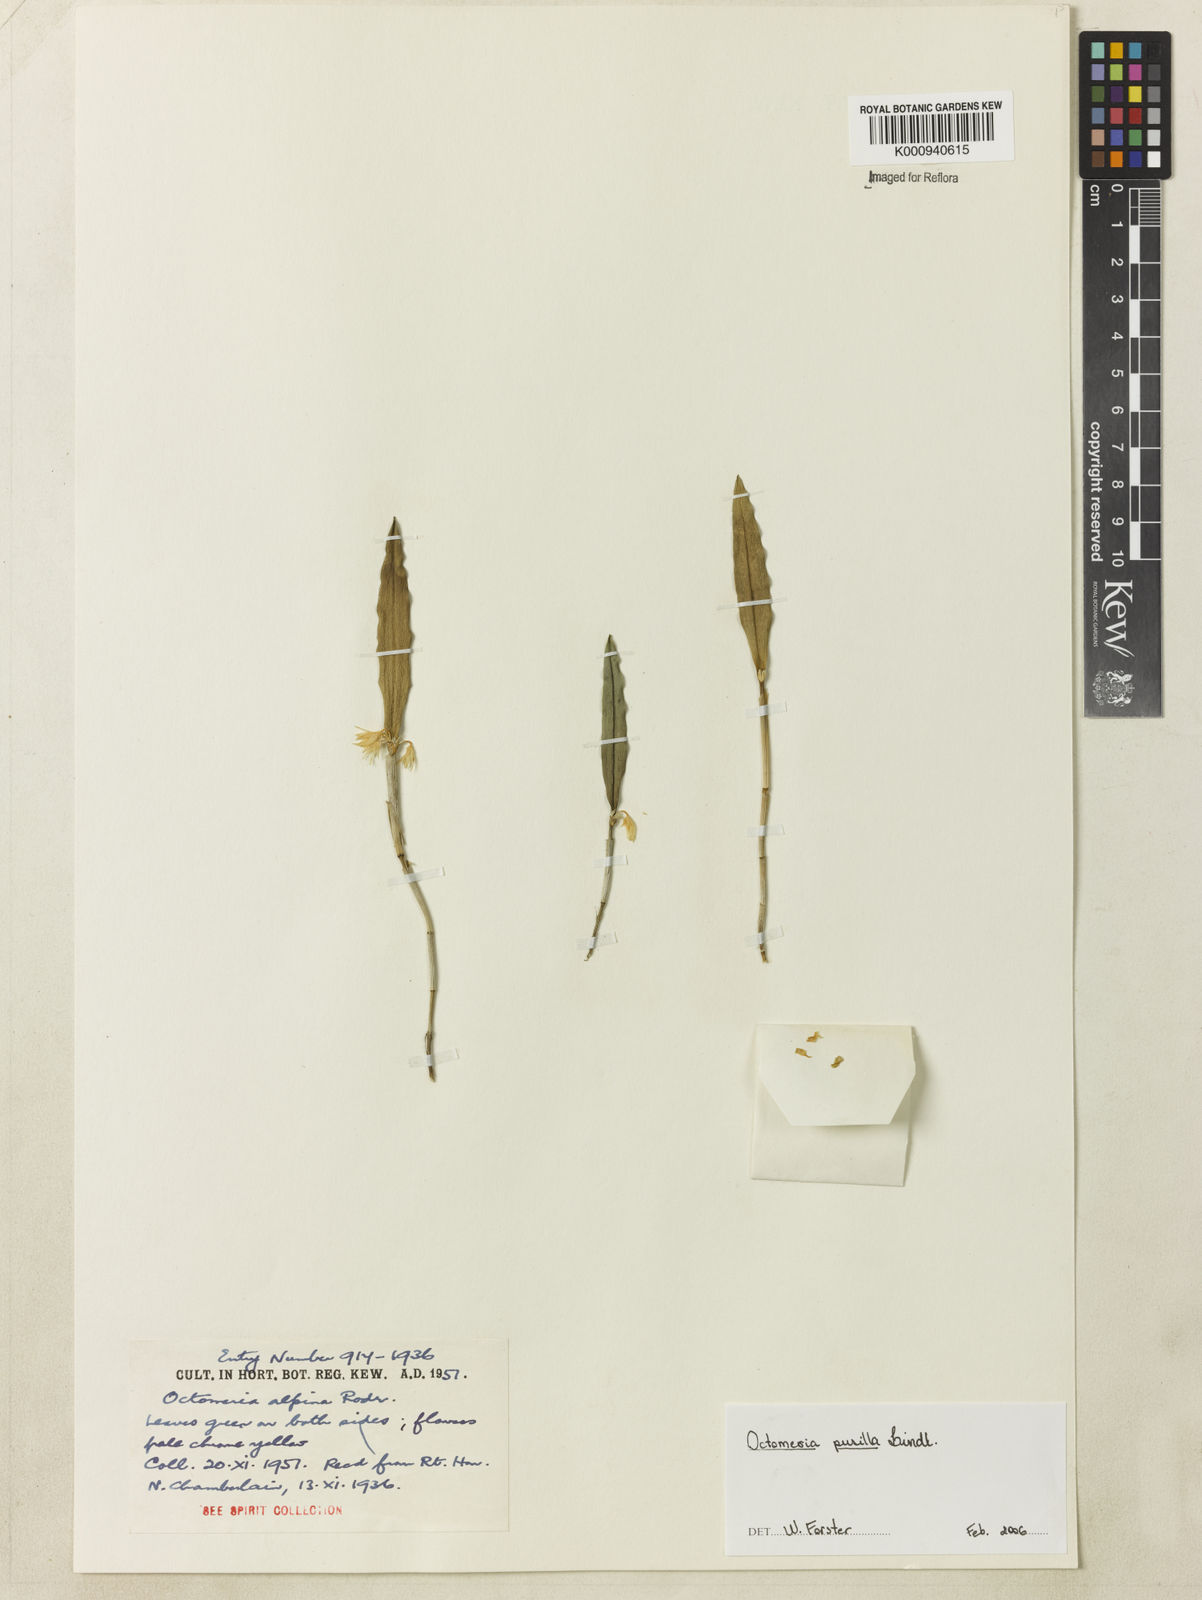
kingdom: Plantae
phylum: Tracheophyta
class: Liliopsida
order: Asparagales
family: Orchidaceae
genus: Octomeria
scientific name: Octomeria pusilla
